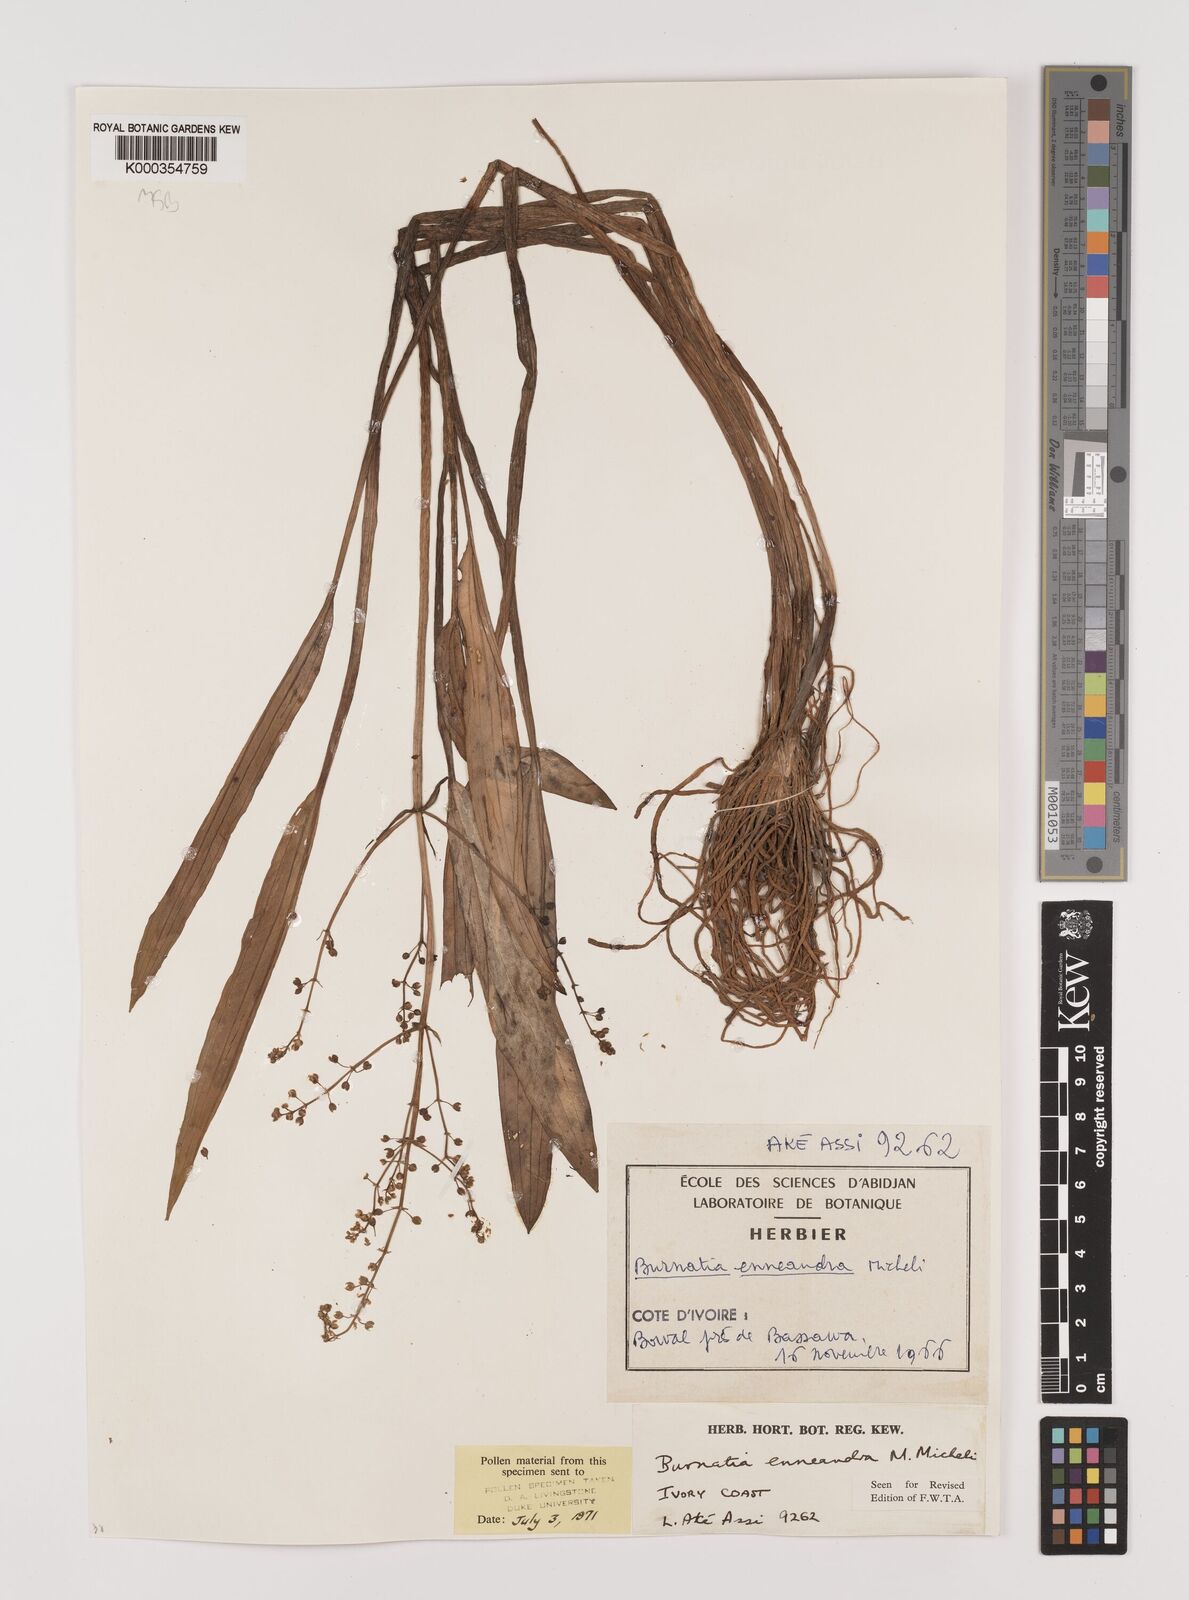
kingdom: Plantae
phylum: Tracheophyta
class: Liliopsida
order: Alismatales
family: Alismataceae
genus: Burnatia
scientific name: Burnatia enneandra
